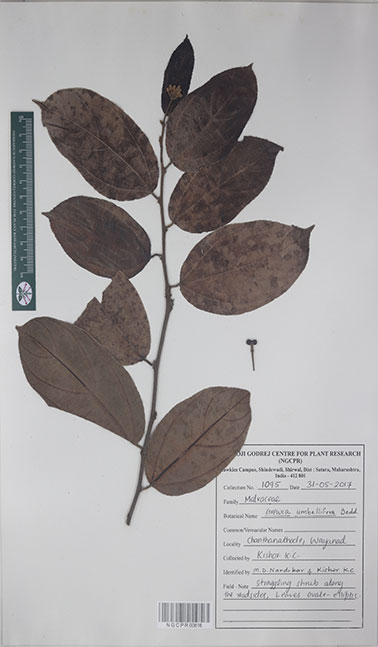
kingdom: Plantae
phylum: Tracheophyta
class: Magnoliopsida
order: Malvales
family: Malvaceae
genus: Grewia
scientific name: Grewia umbellifera
